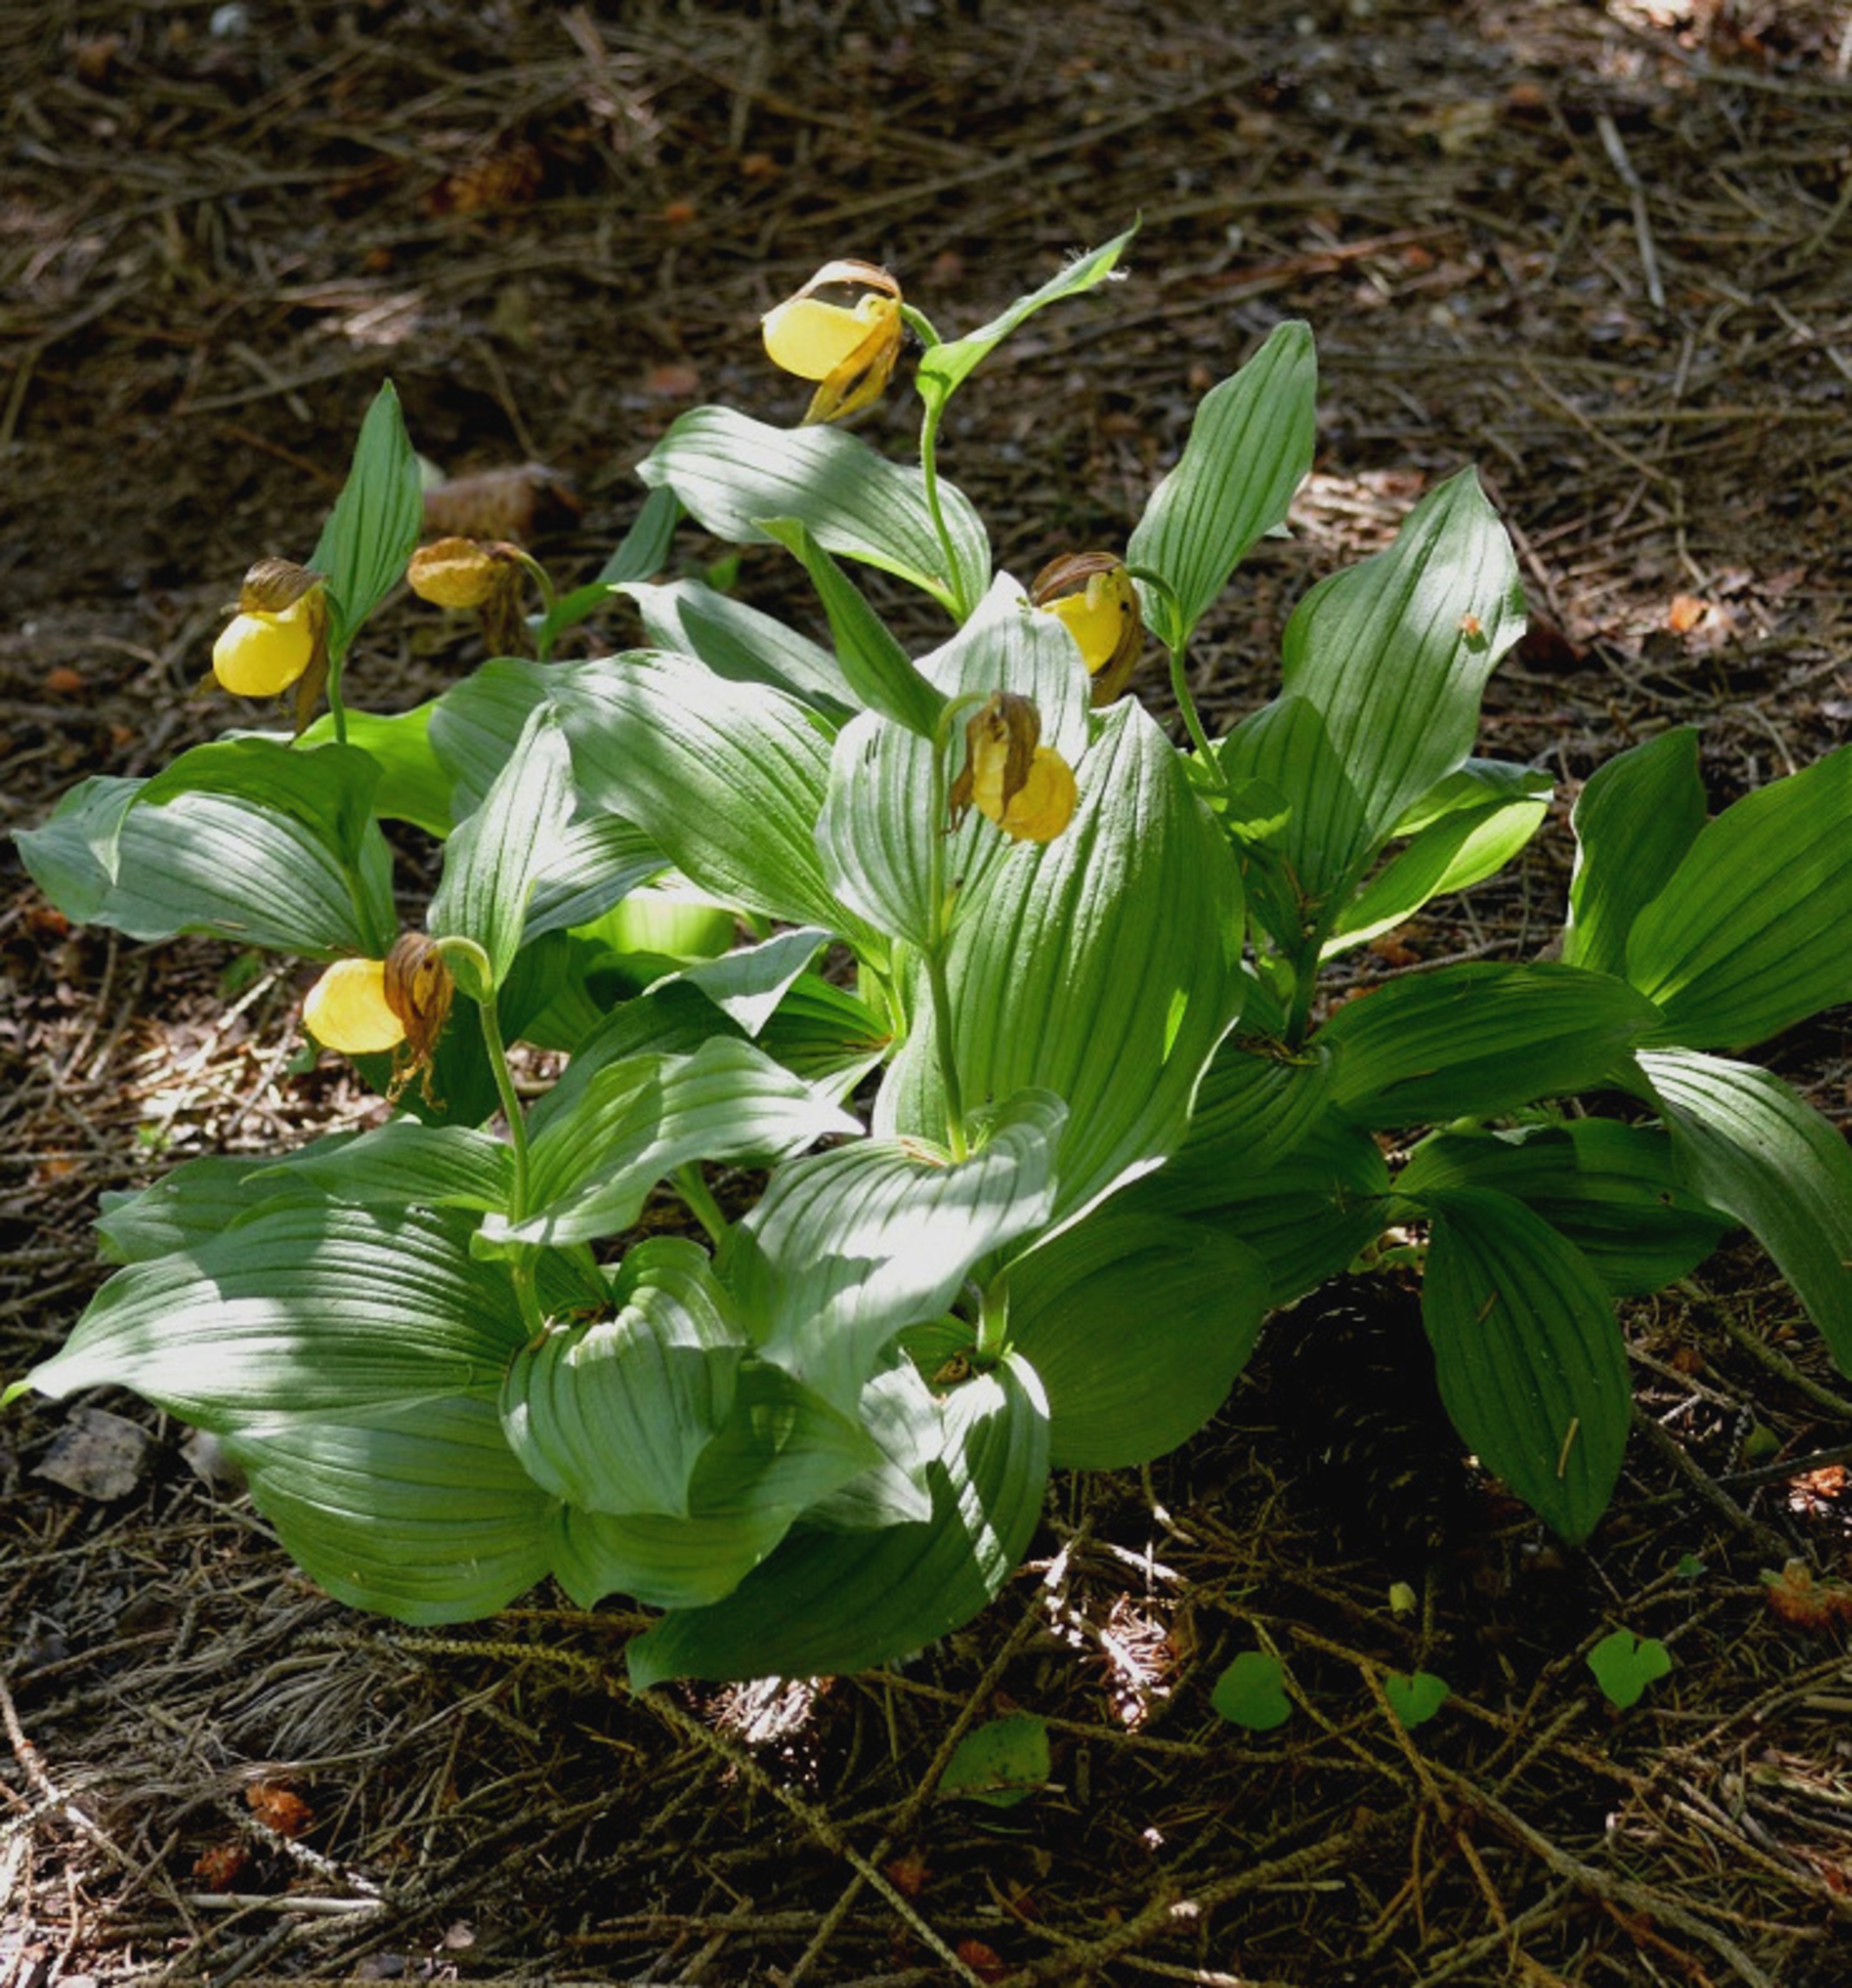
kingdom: Plantae
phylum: Tracheophyta
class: Liliopsida
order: Asparagales
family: Orchidaceae
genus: Cypripedium
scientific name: Cypripedium calceolus
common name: Fruesko
